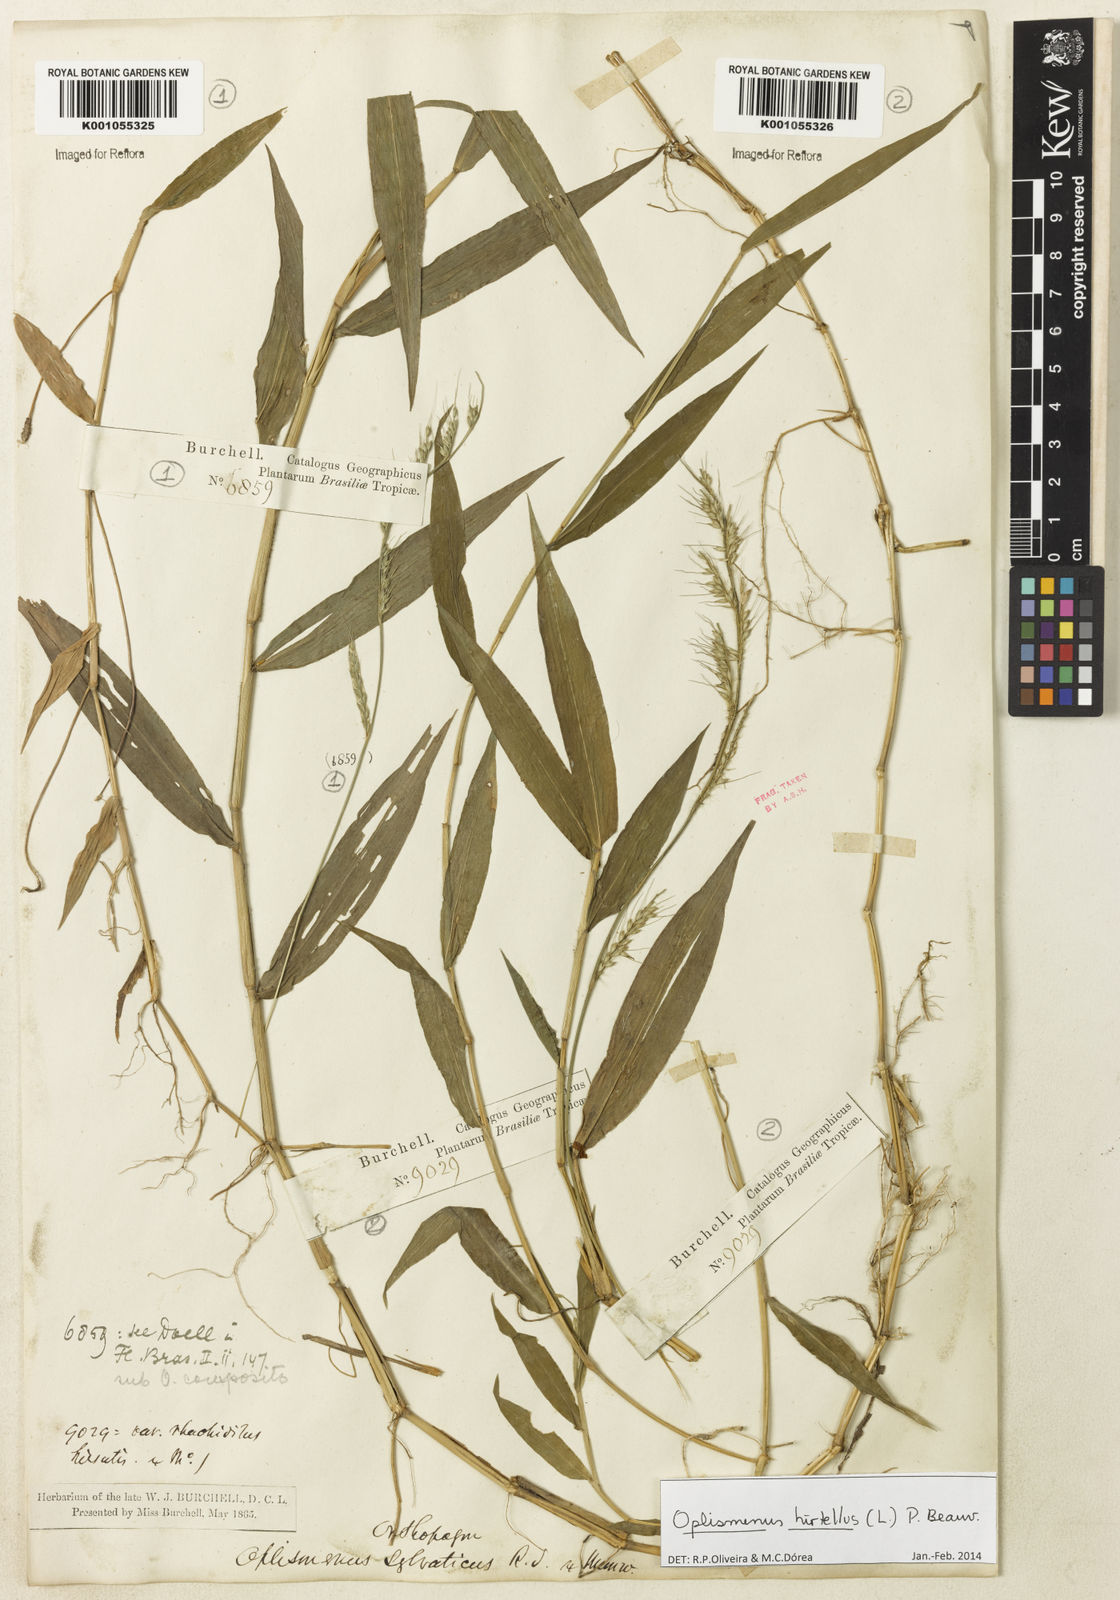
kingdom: Plantae
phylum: Tracheophyta
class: Liliopsida
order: Poales
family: Poaceae
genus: Oplismenus
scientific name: Oplismenus hirtellus
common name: Basketgrass
